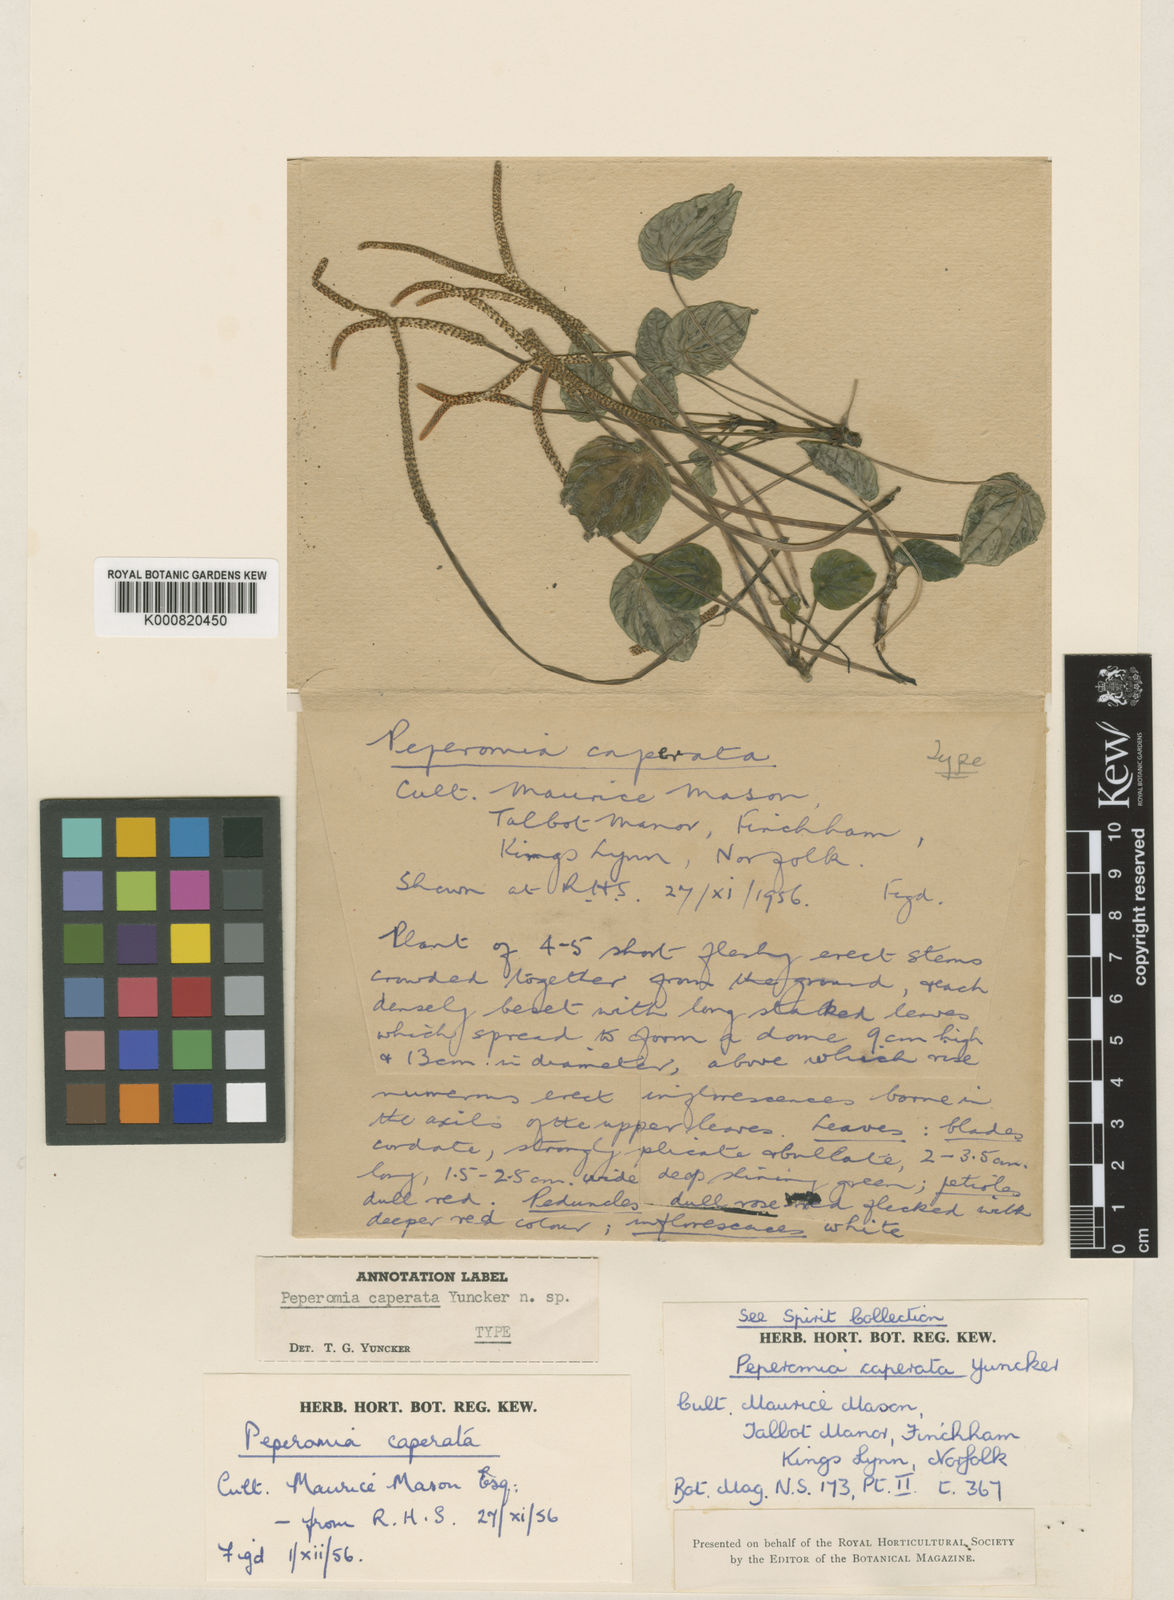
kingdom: Plantae
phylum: Tracheophyta
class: Magnoliopsida
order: Piperales
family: Piperaceae
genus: Peperomia
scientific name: Peperomia caperata
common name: Green-ripple pepper
